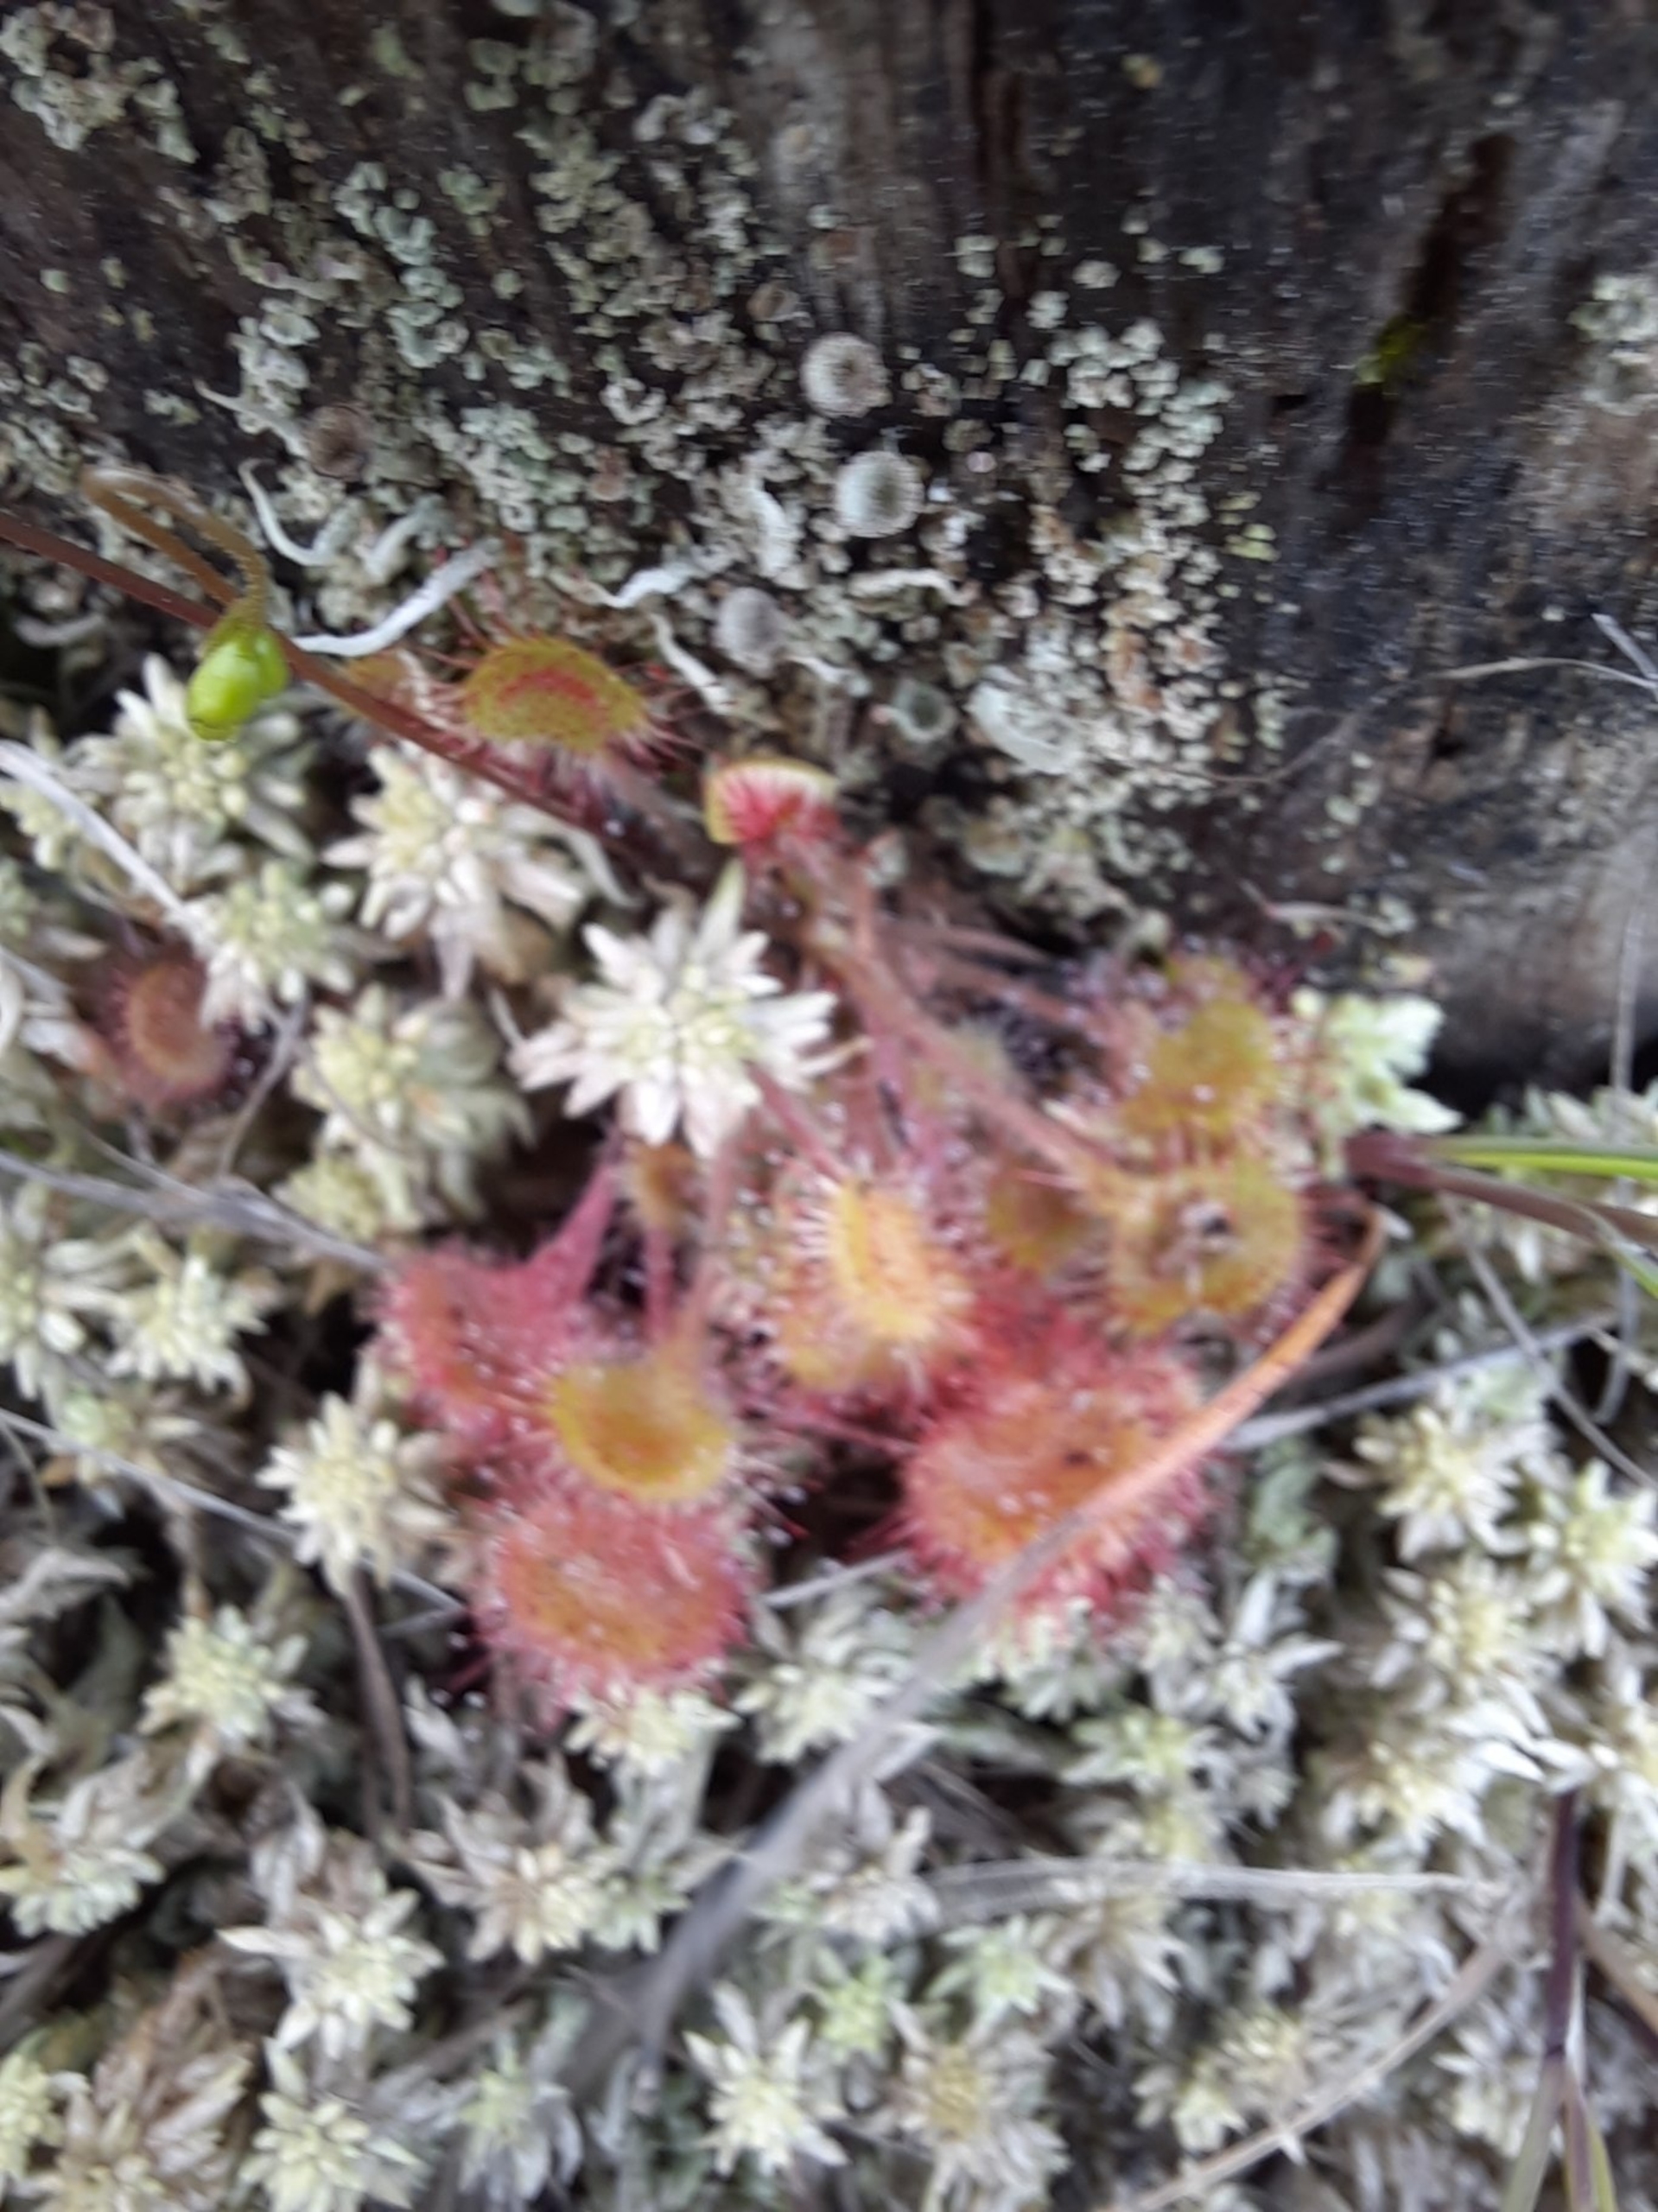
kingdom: Plantae
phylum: Tracheophyta
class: Magnoliopsida
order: Caryophyllales
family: Droseraceae
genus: Drosera
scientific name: Drosera rotundifolia
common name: Rundbladet soldug
